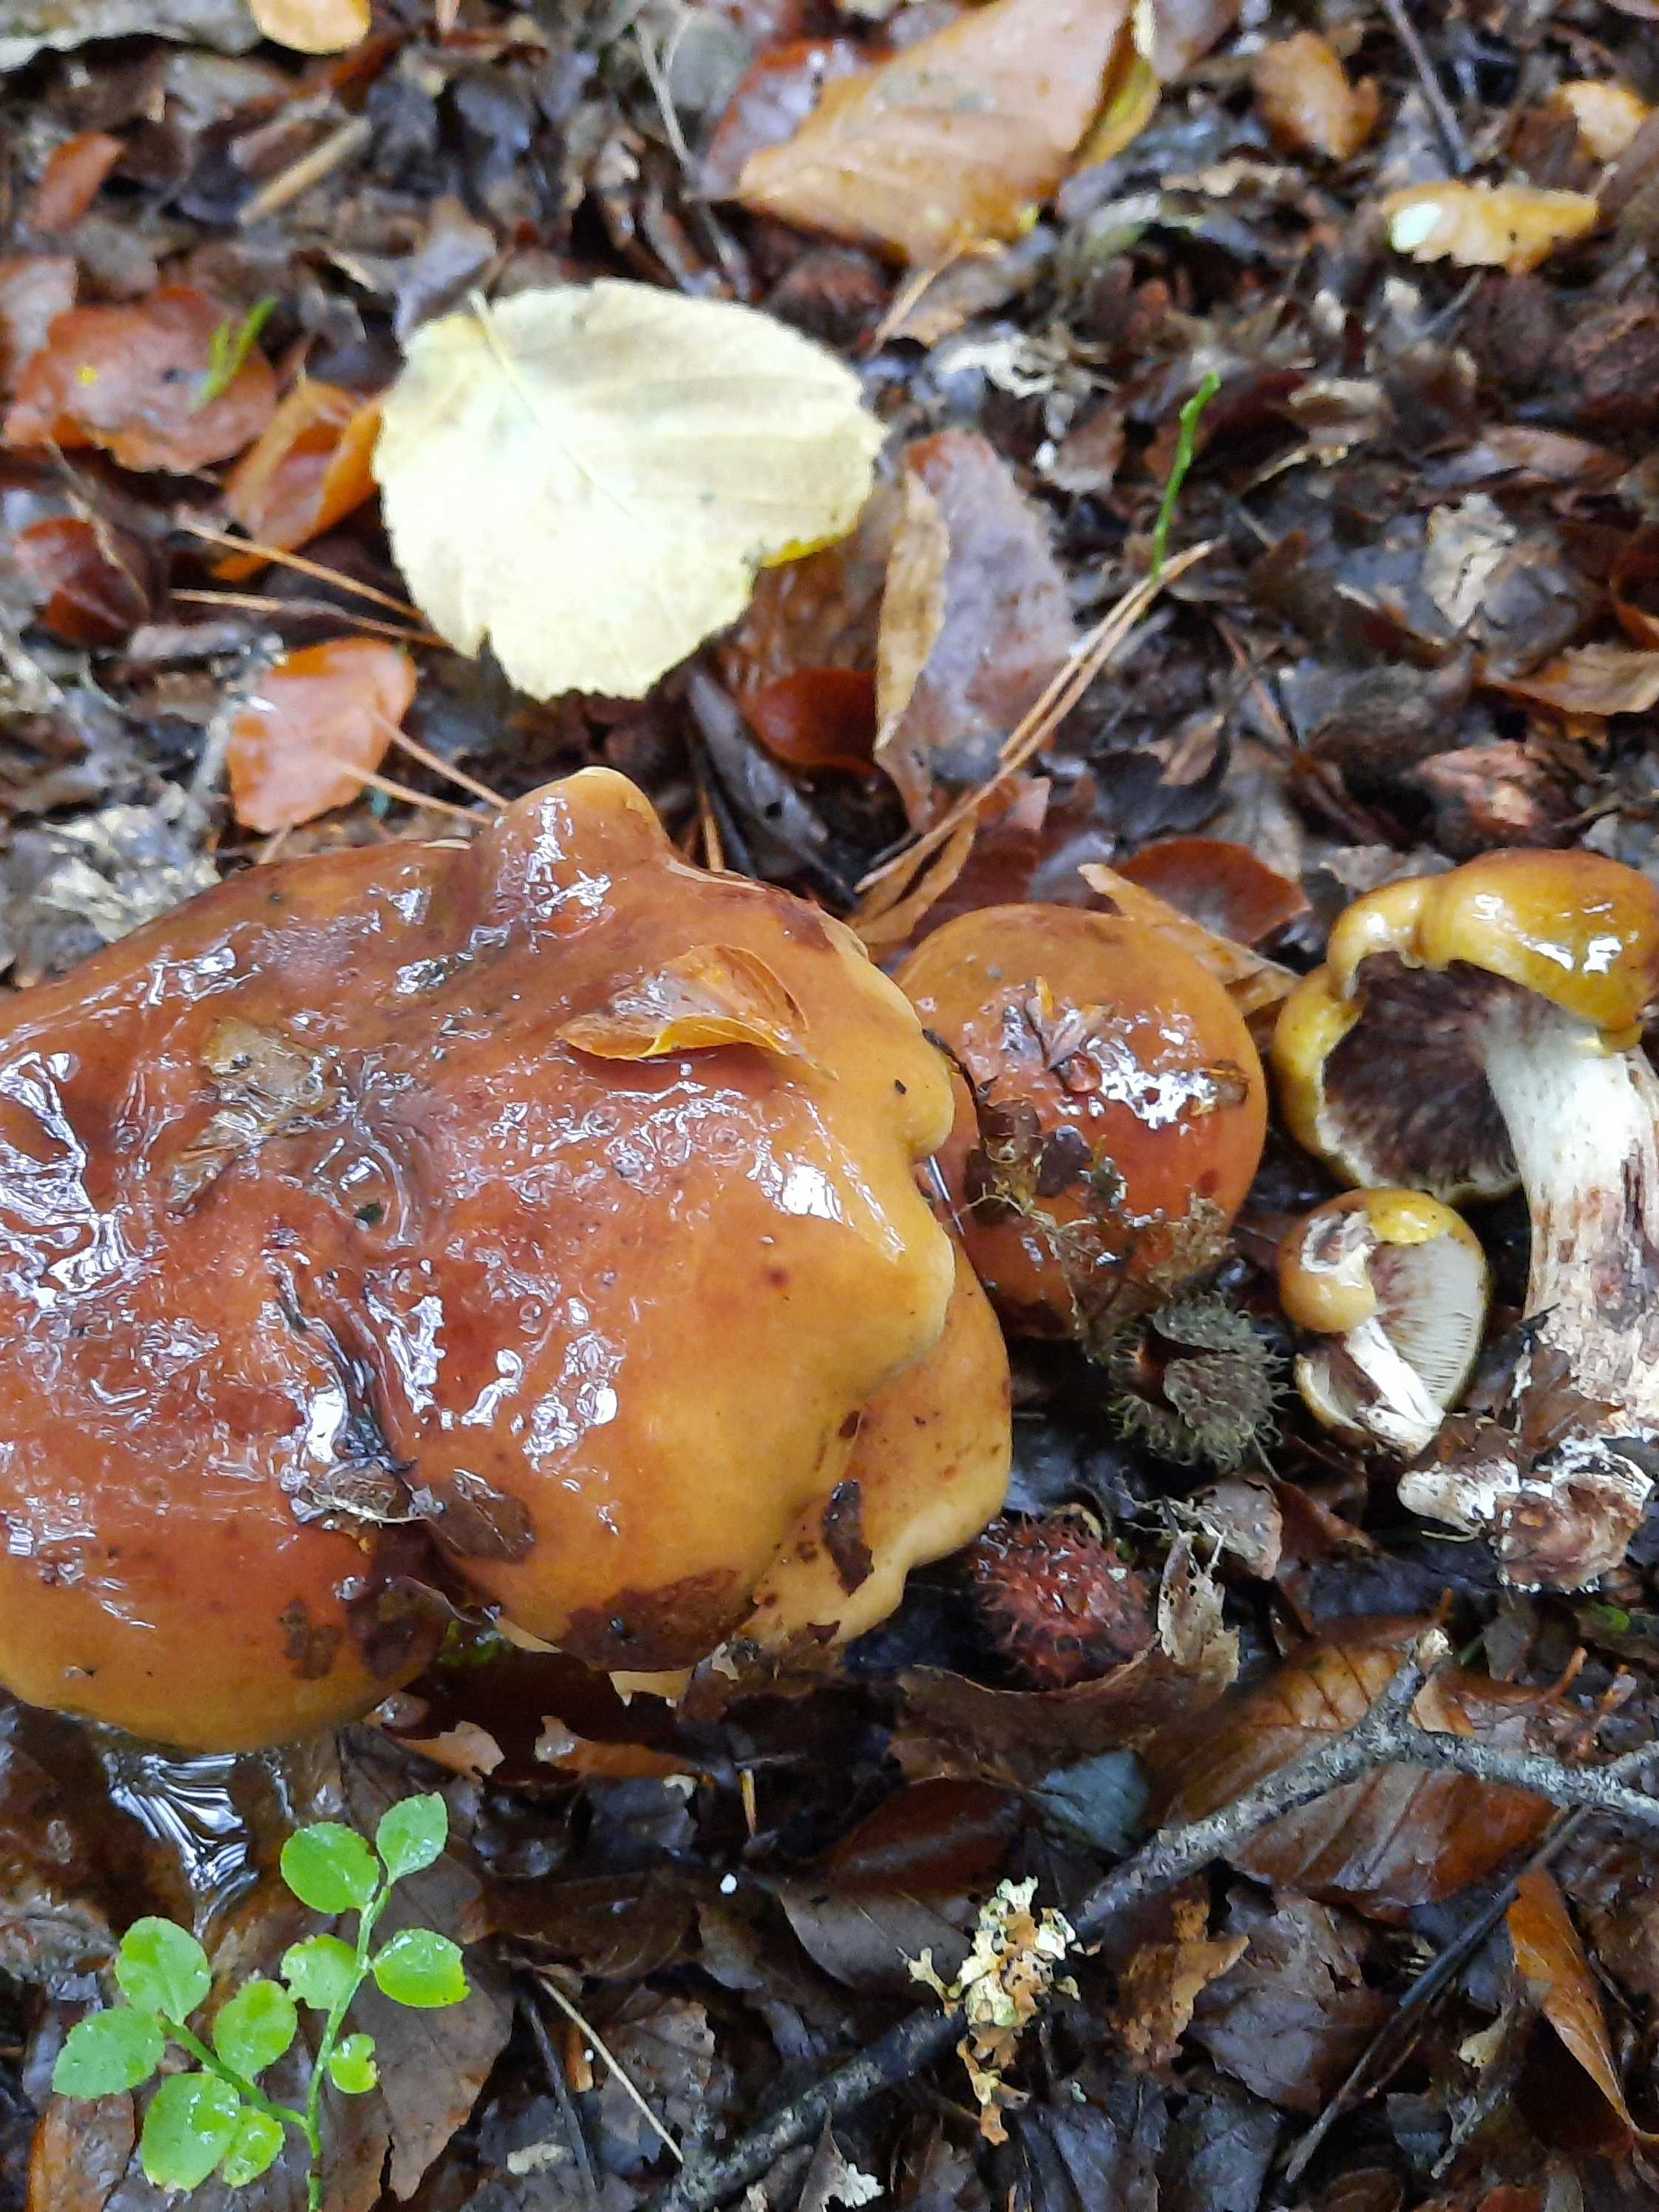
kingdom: Fungi
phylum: Basidiomycota
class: Agaricomycetes
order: Agaricales
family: Tricholomataceae
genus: Tricholoma
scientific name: Tricholoma ustale
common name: sveden ridderhat
